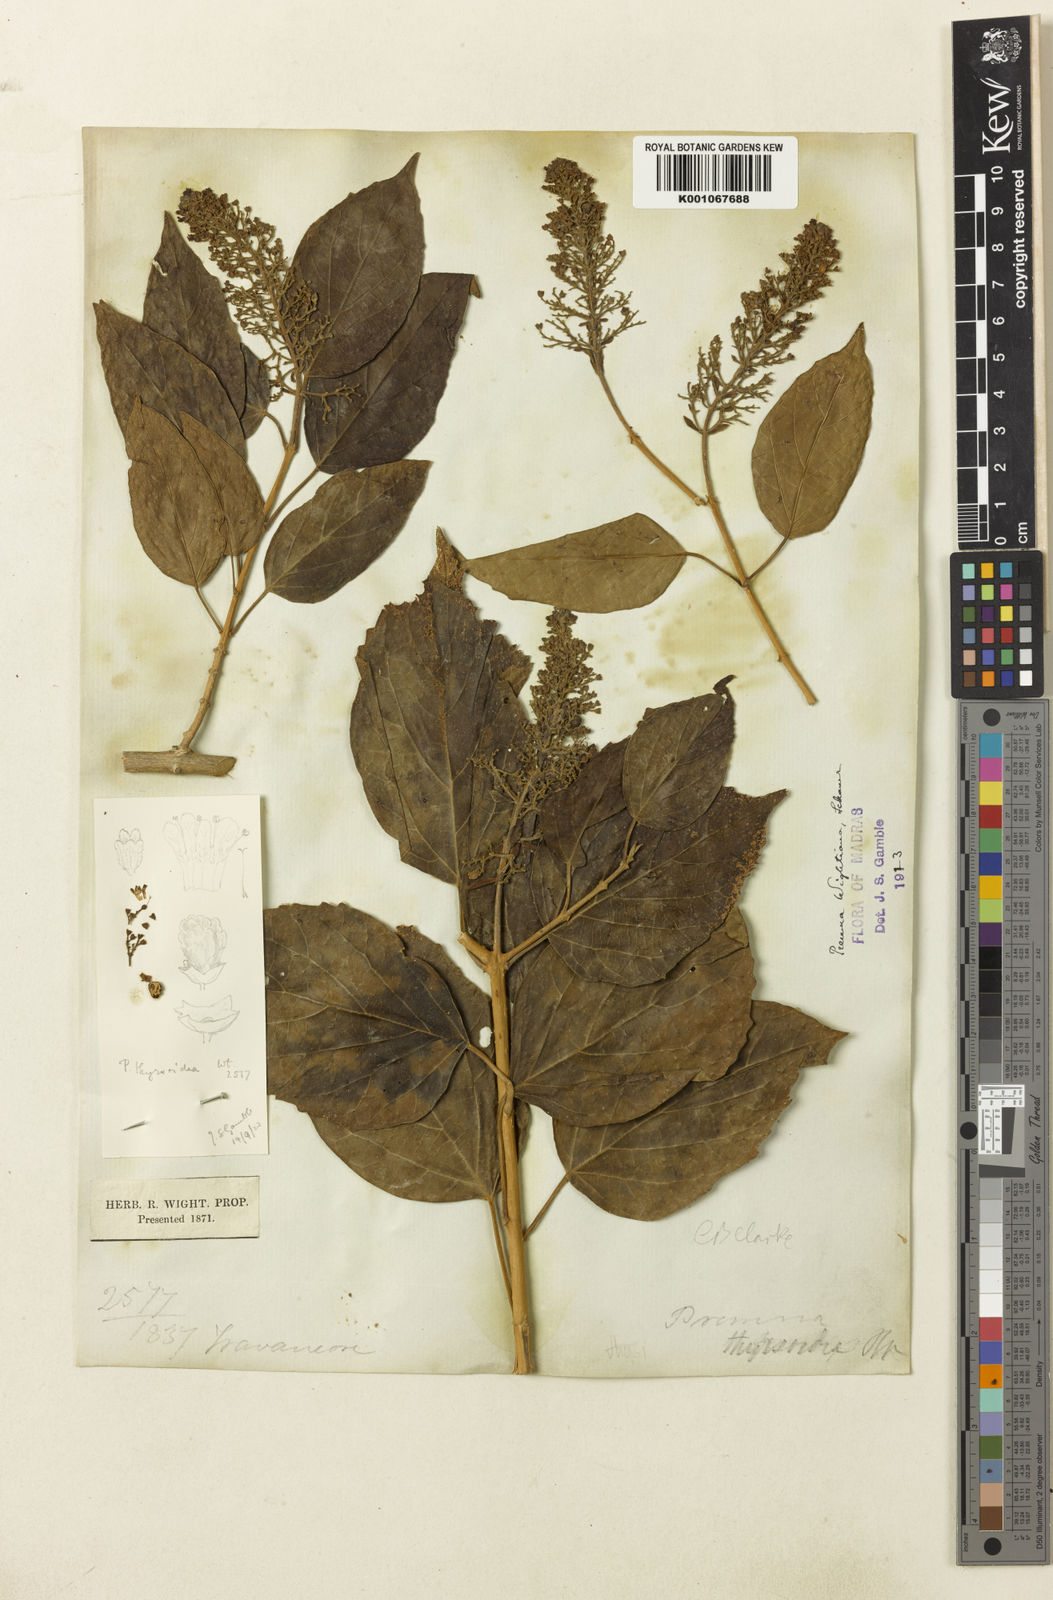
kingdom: Plantae
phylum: Tracheophyta
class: Magnoliopsida
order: Lamiales
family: Lamiaceae
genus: Premna
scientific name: Premna wightiana
